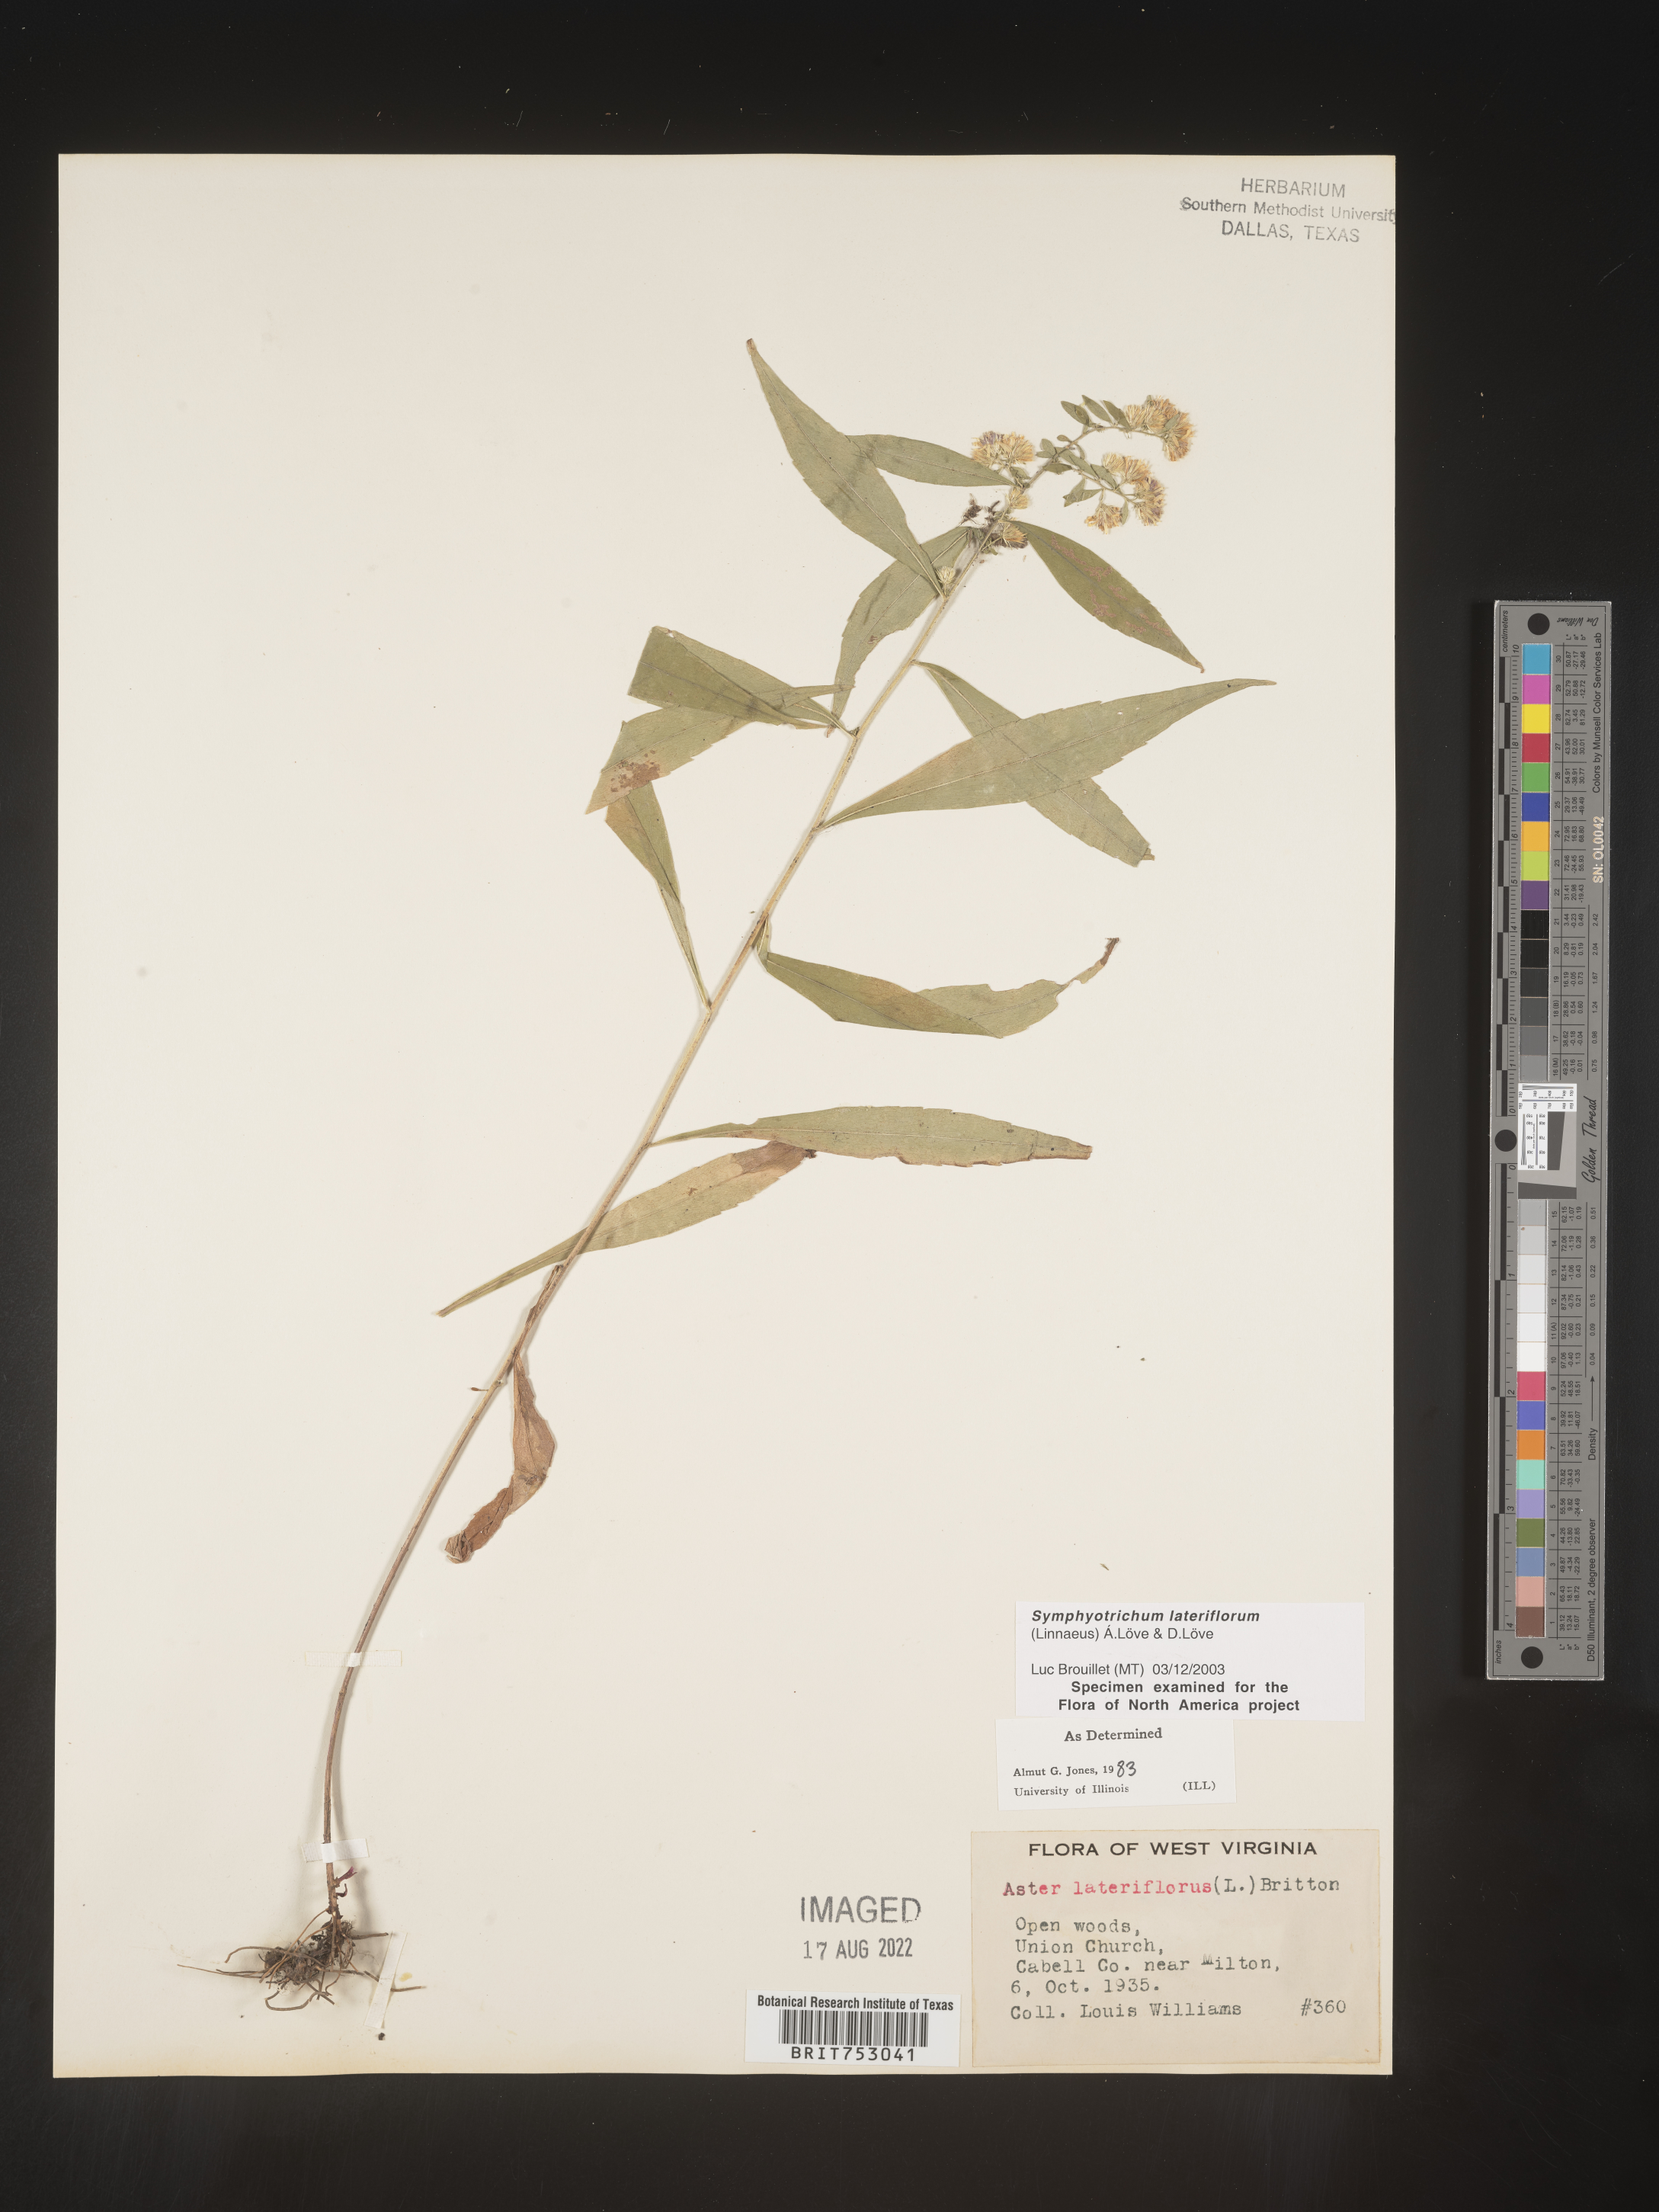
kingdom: Plantae
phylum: Tracheophyta
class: Magnoliopsida
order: Asterales
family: Asteraceae
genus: Symphyotrichum
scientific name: Symphyotrichum lateriflorum
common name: Calico aster
